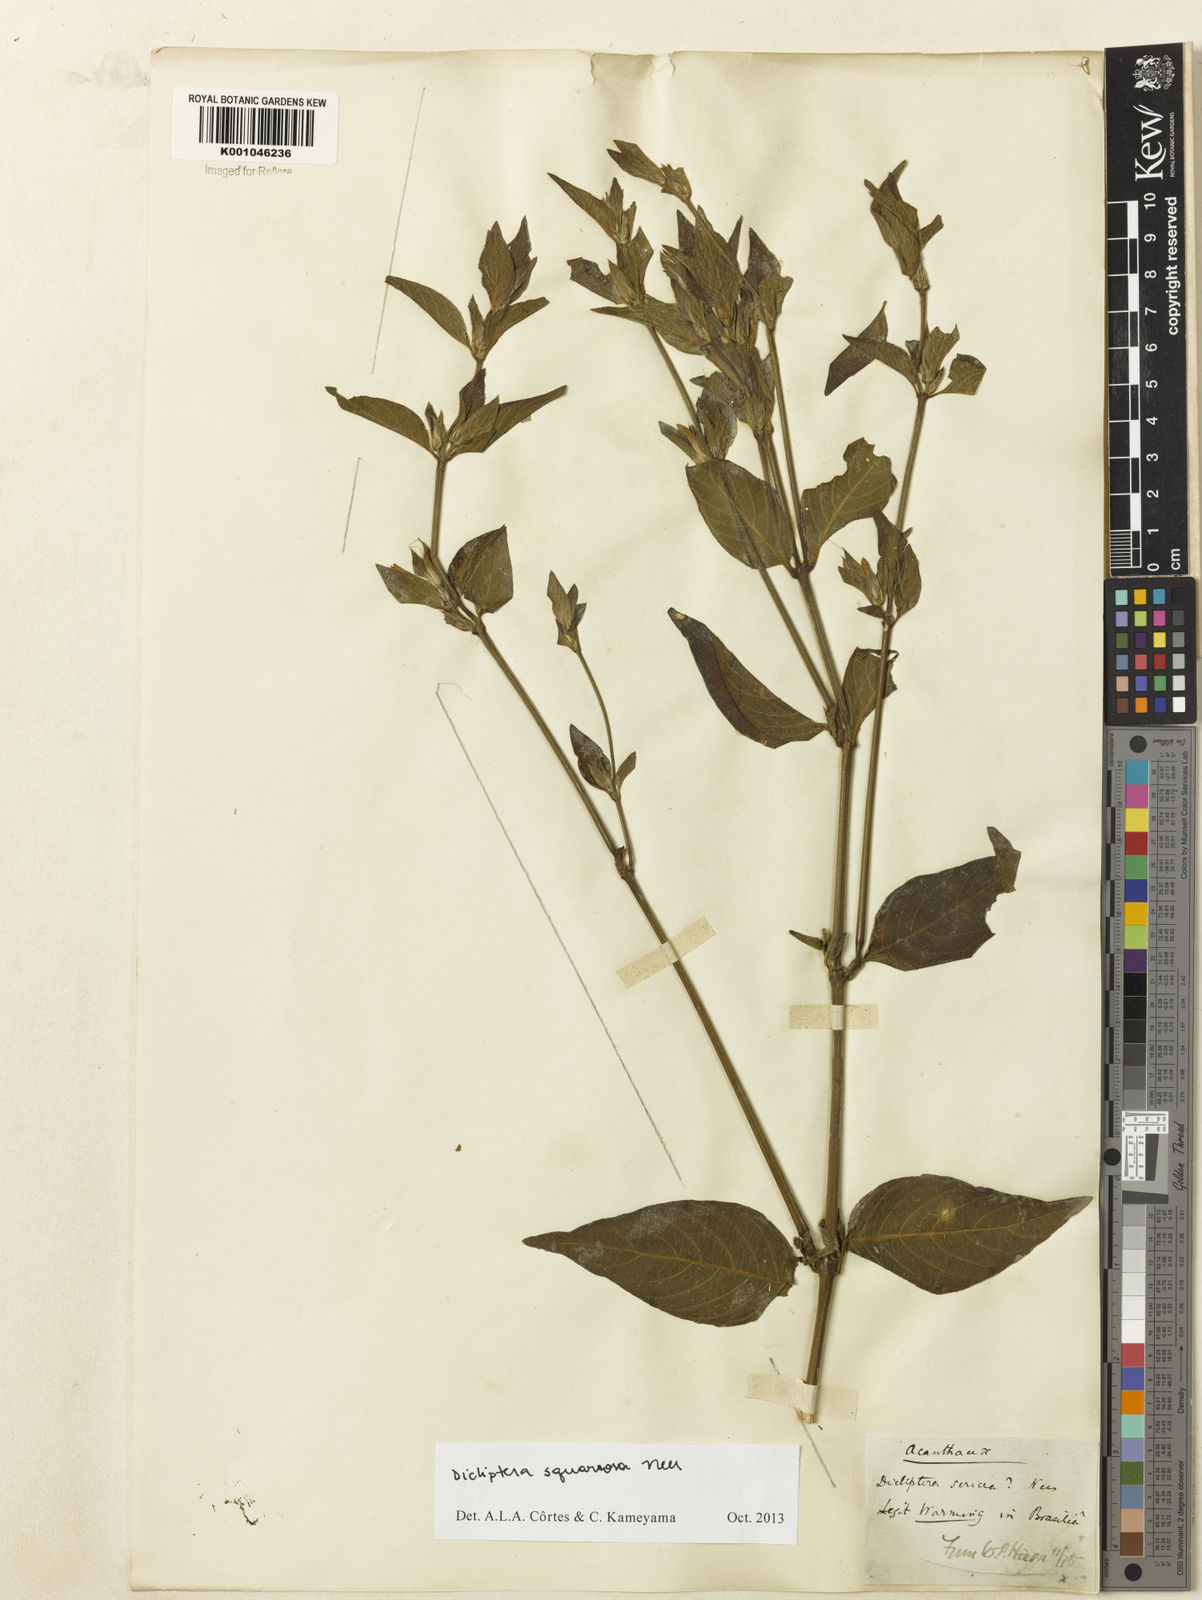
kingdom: Plantae
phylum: Tracheophyta
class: Magnoliopsida
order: Lamiales
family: Acanthaceae
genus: Dicliptera
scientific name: Dicliptera squarrosa
